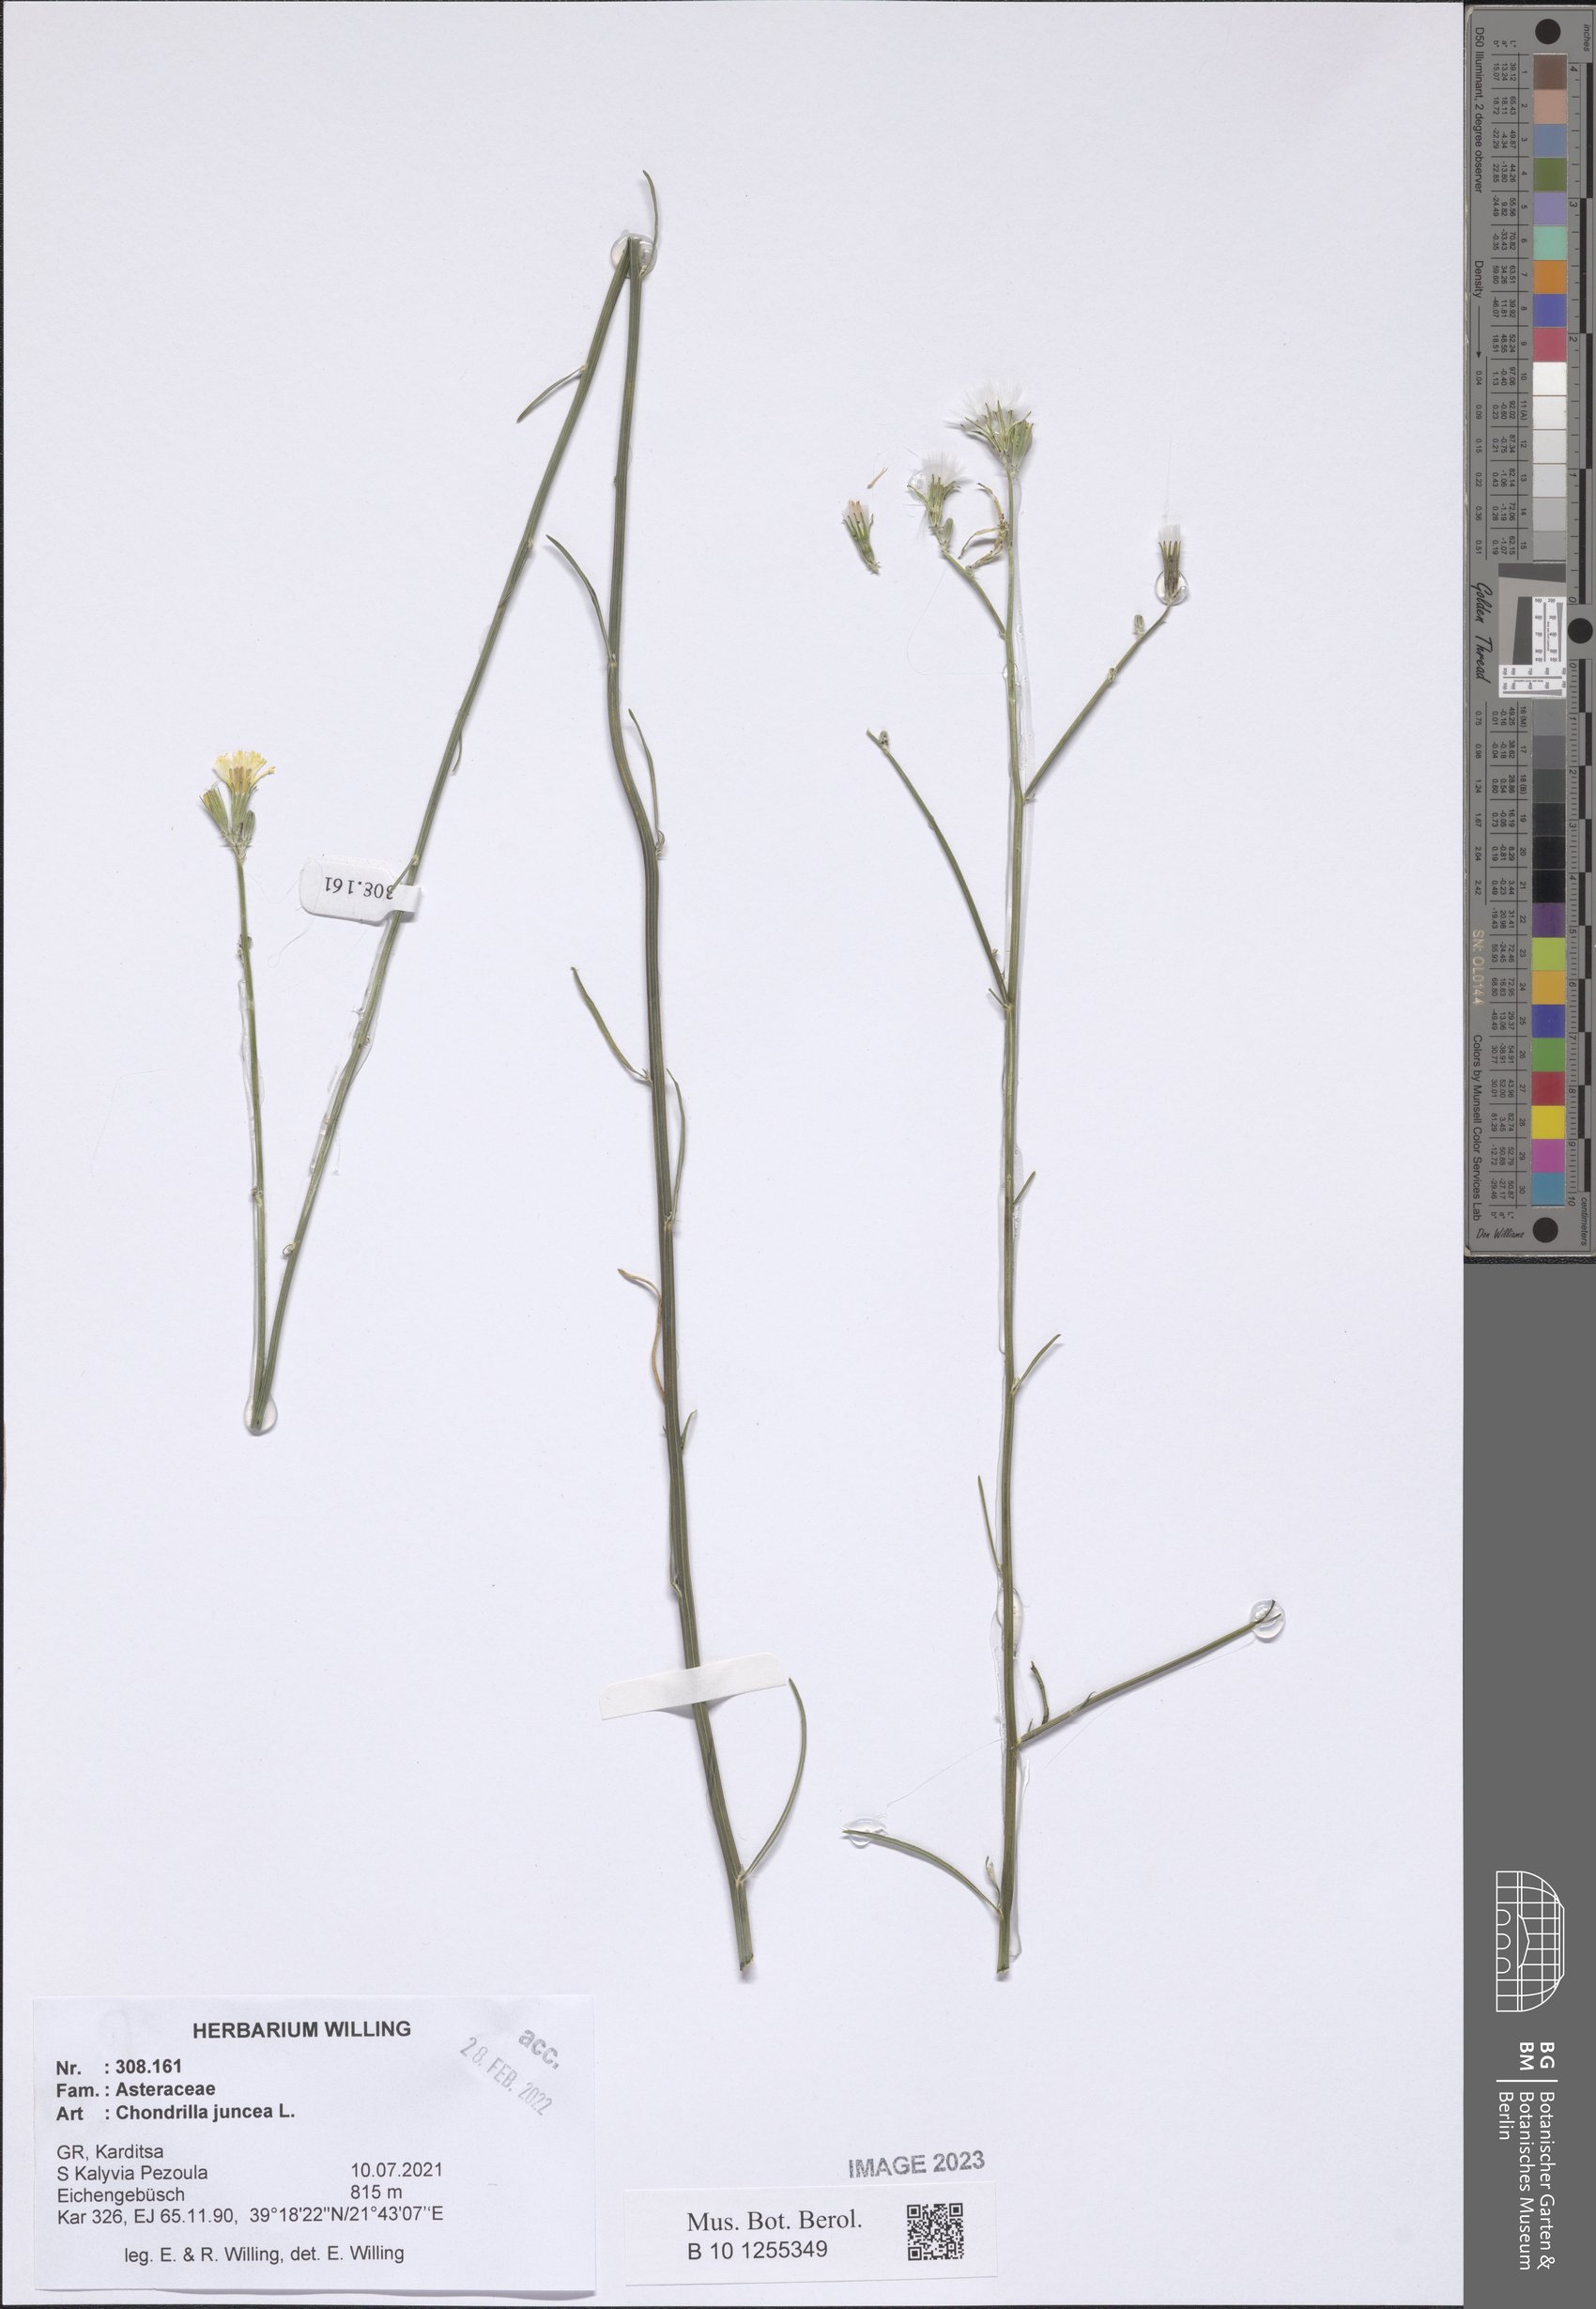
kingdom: Plantae
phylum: Tracheophyta
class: Magnoliopsida
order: Asterales
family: Asteraceae
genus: Chondrilla
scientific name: Chondrilla juncea
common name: Skeleton weed
